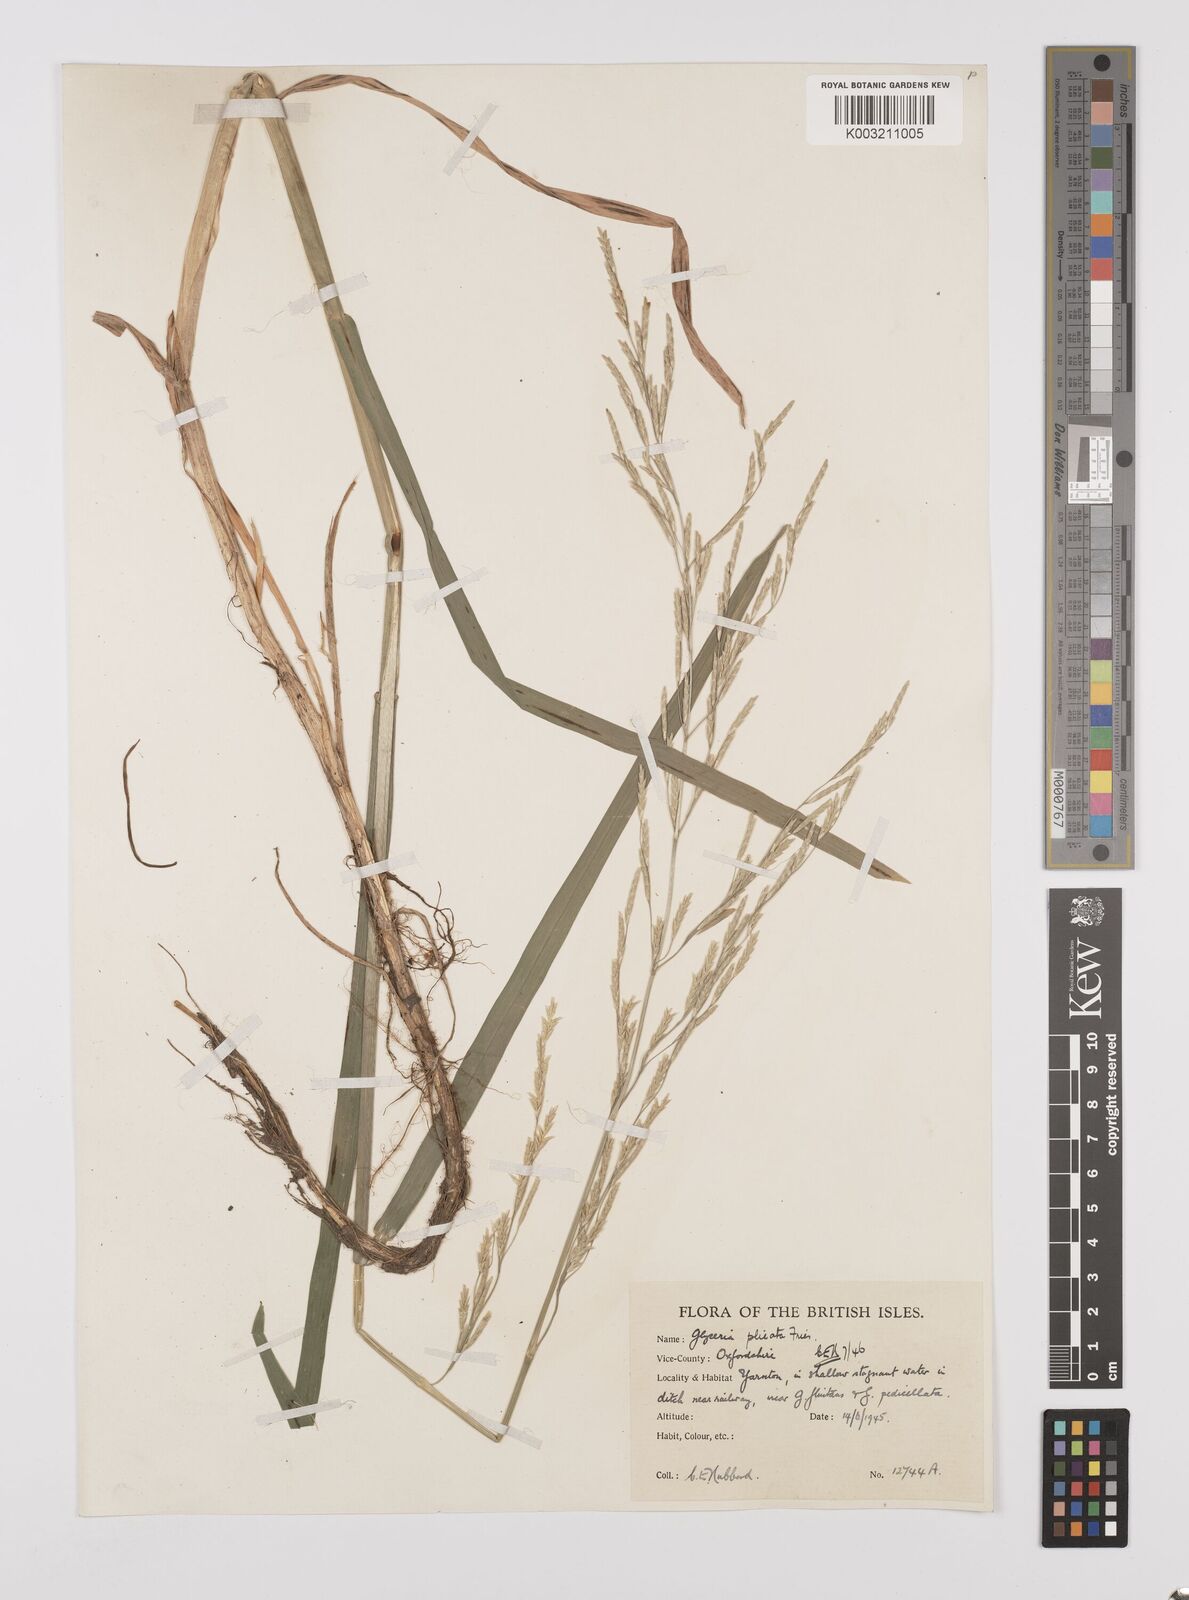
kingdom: Plantae
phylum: Tracheophyta
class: Liliopsida
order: Poales
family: Poaceae
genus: Glyceria
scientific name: Glyceria notata
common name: Plicate sweet-grass
